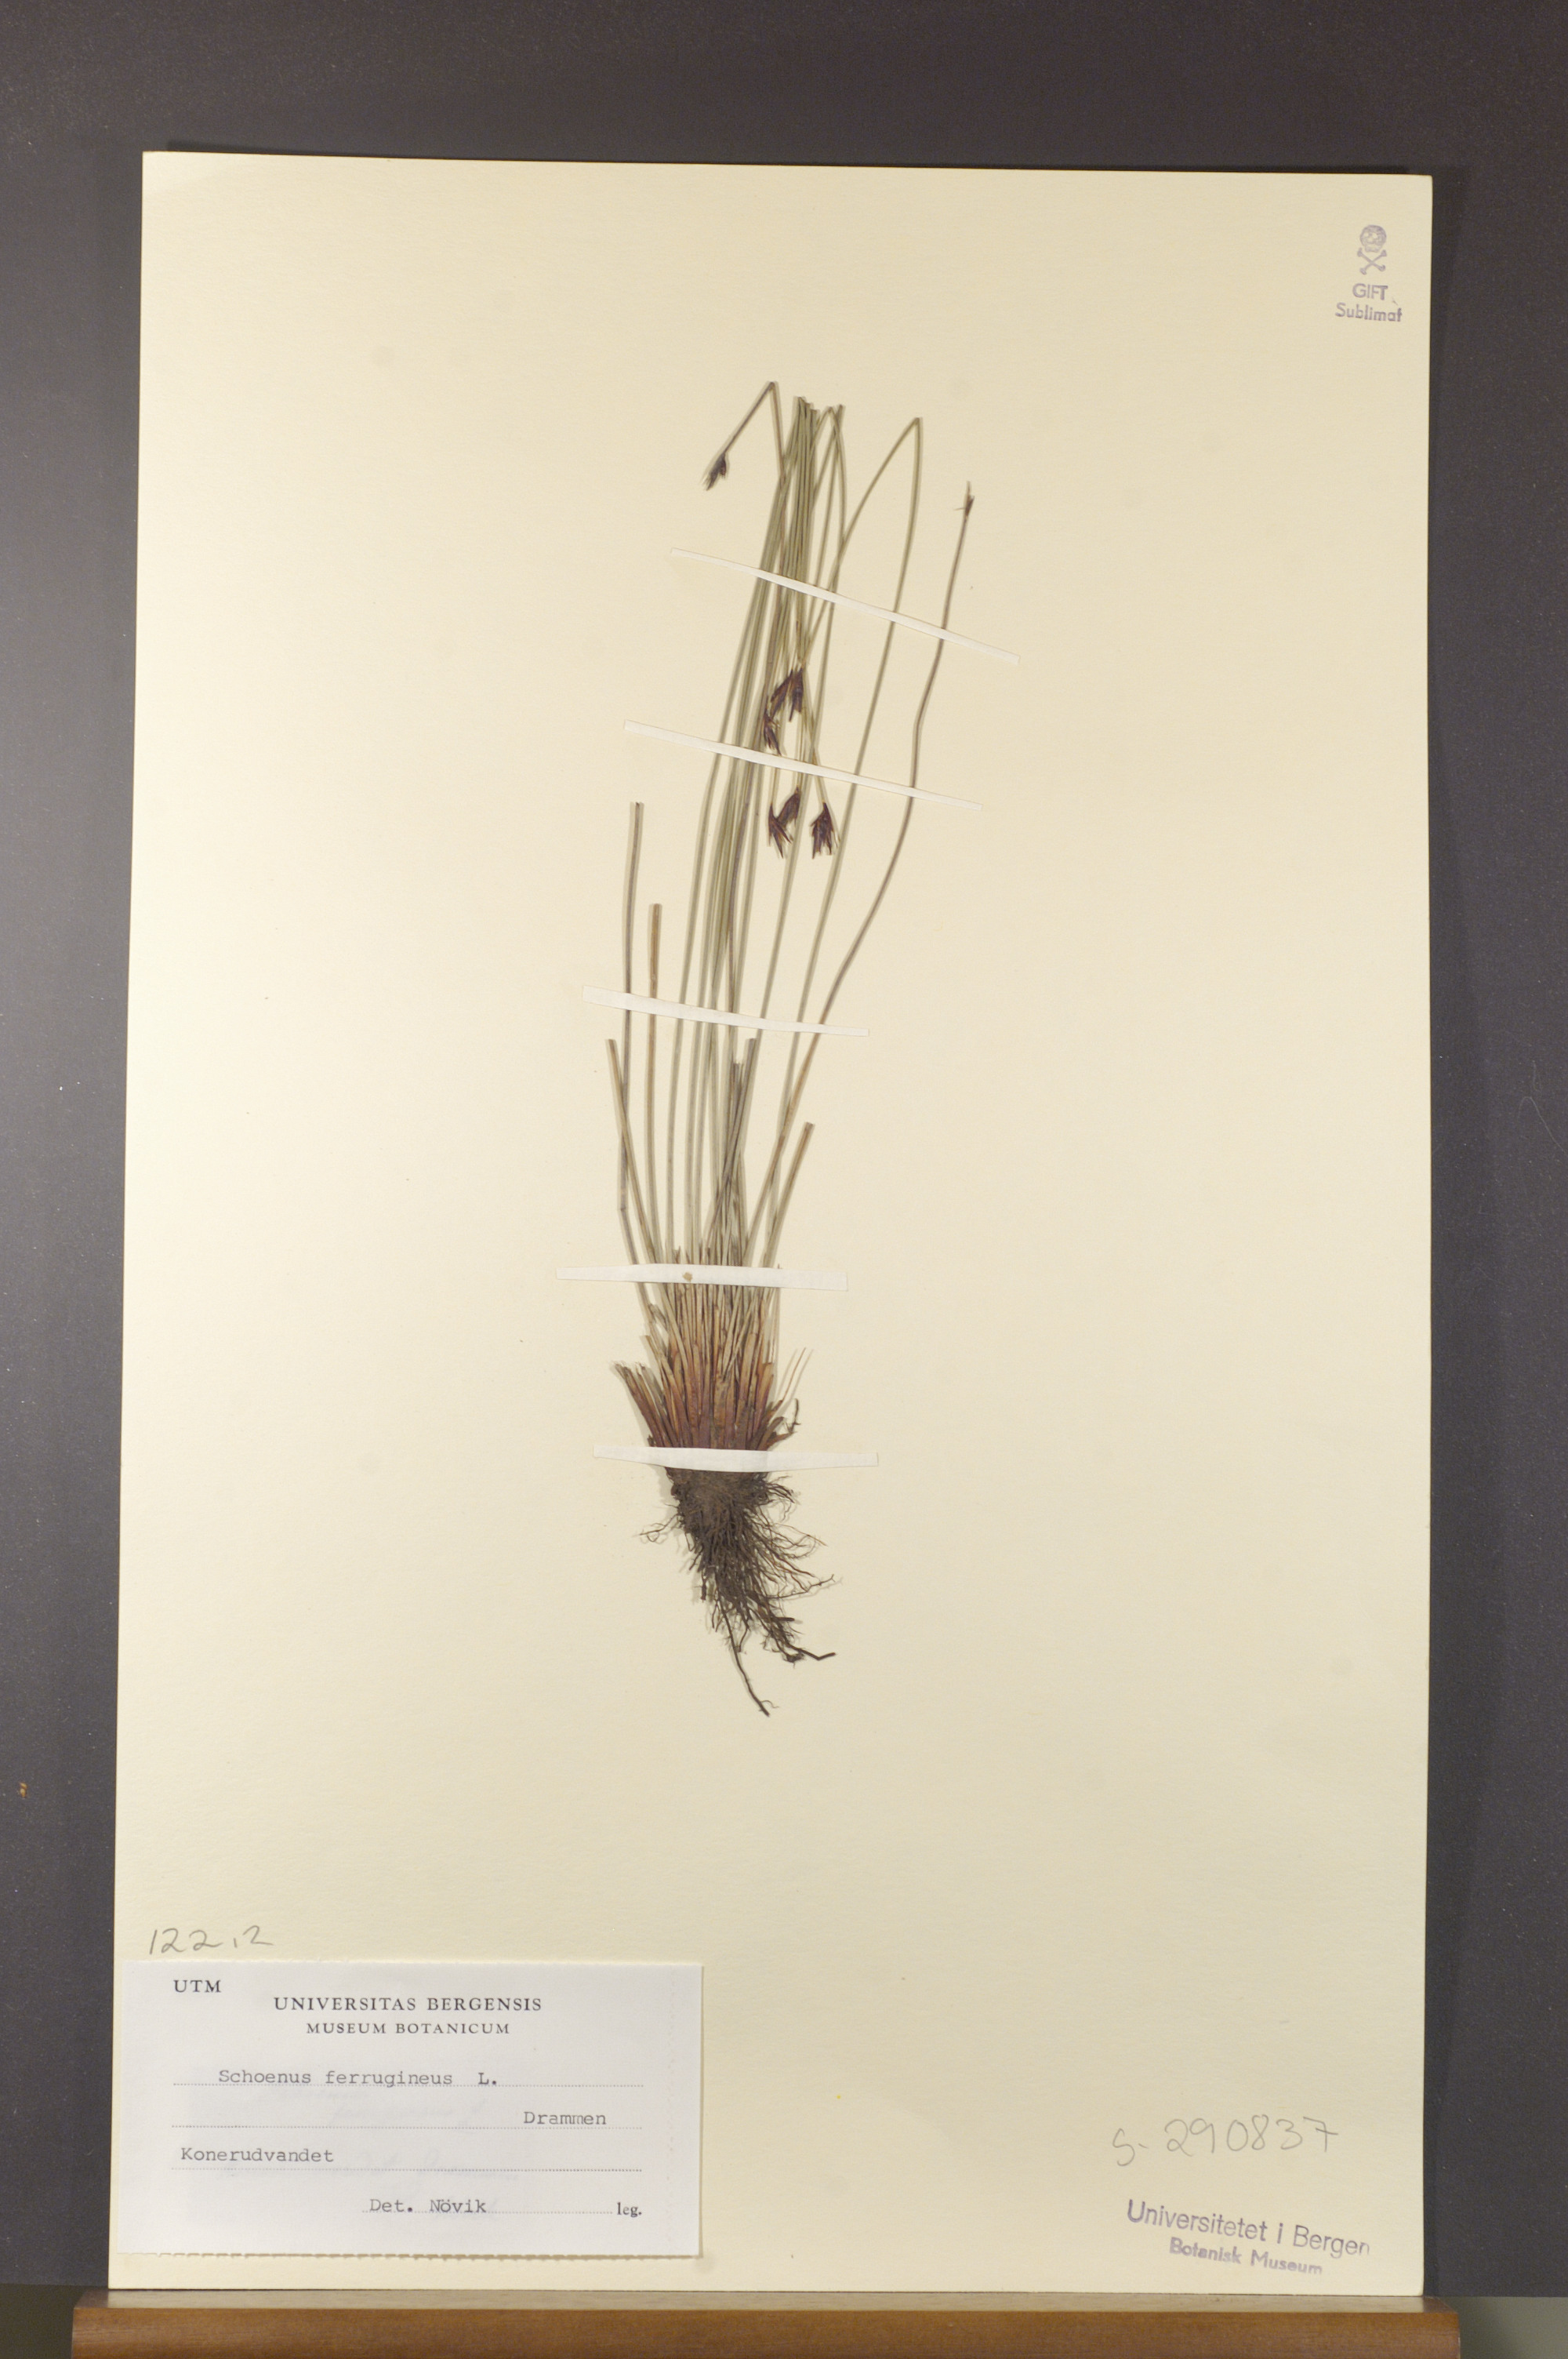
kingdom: Plantae
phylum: Tracheophyta
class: Liliopsida
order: Poales
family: Cyperaceae
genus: Schoenus
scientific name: Schoenus ferrugineus
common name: Brown bog-rush
